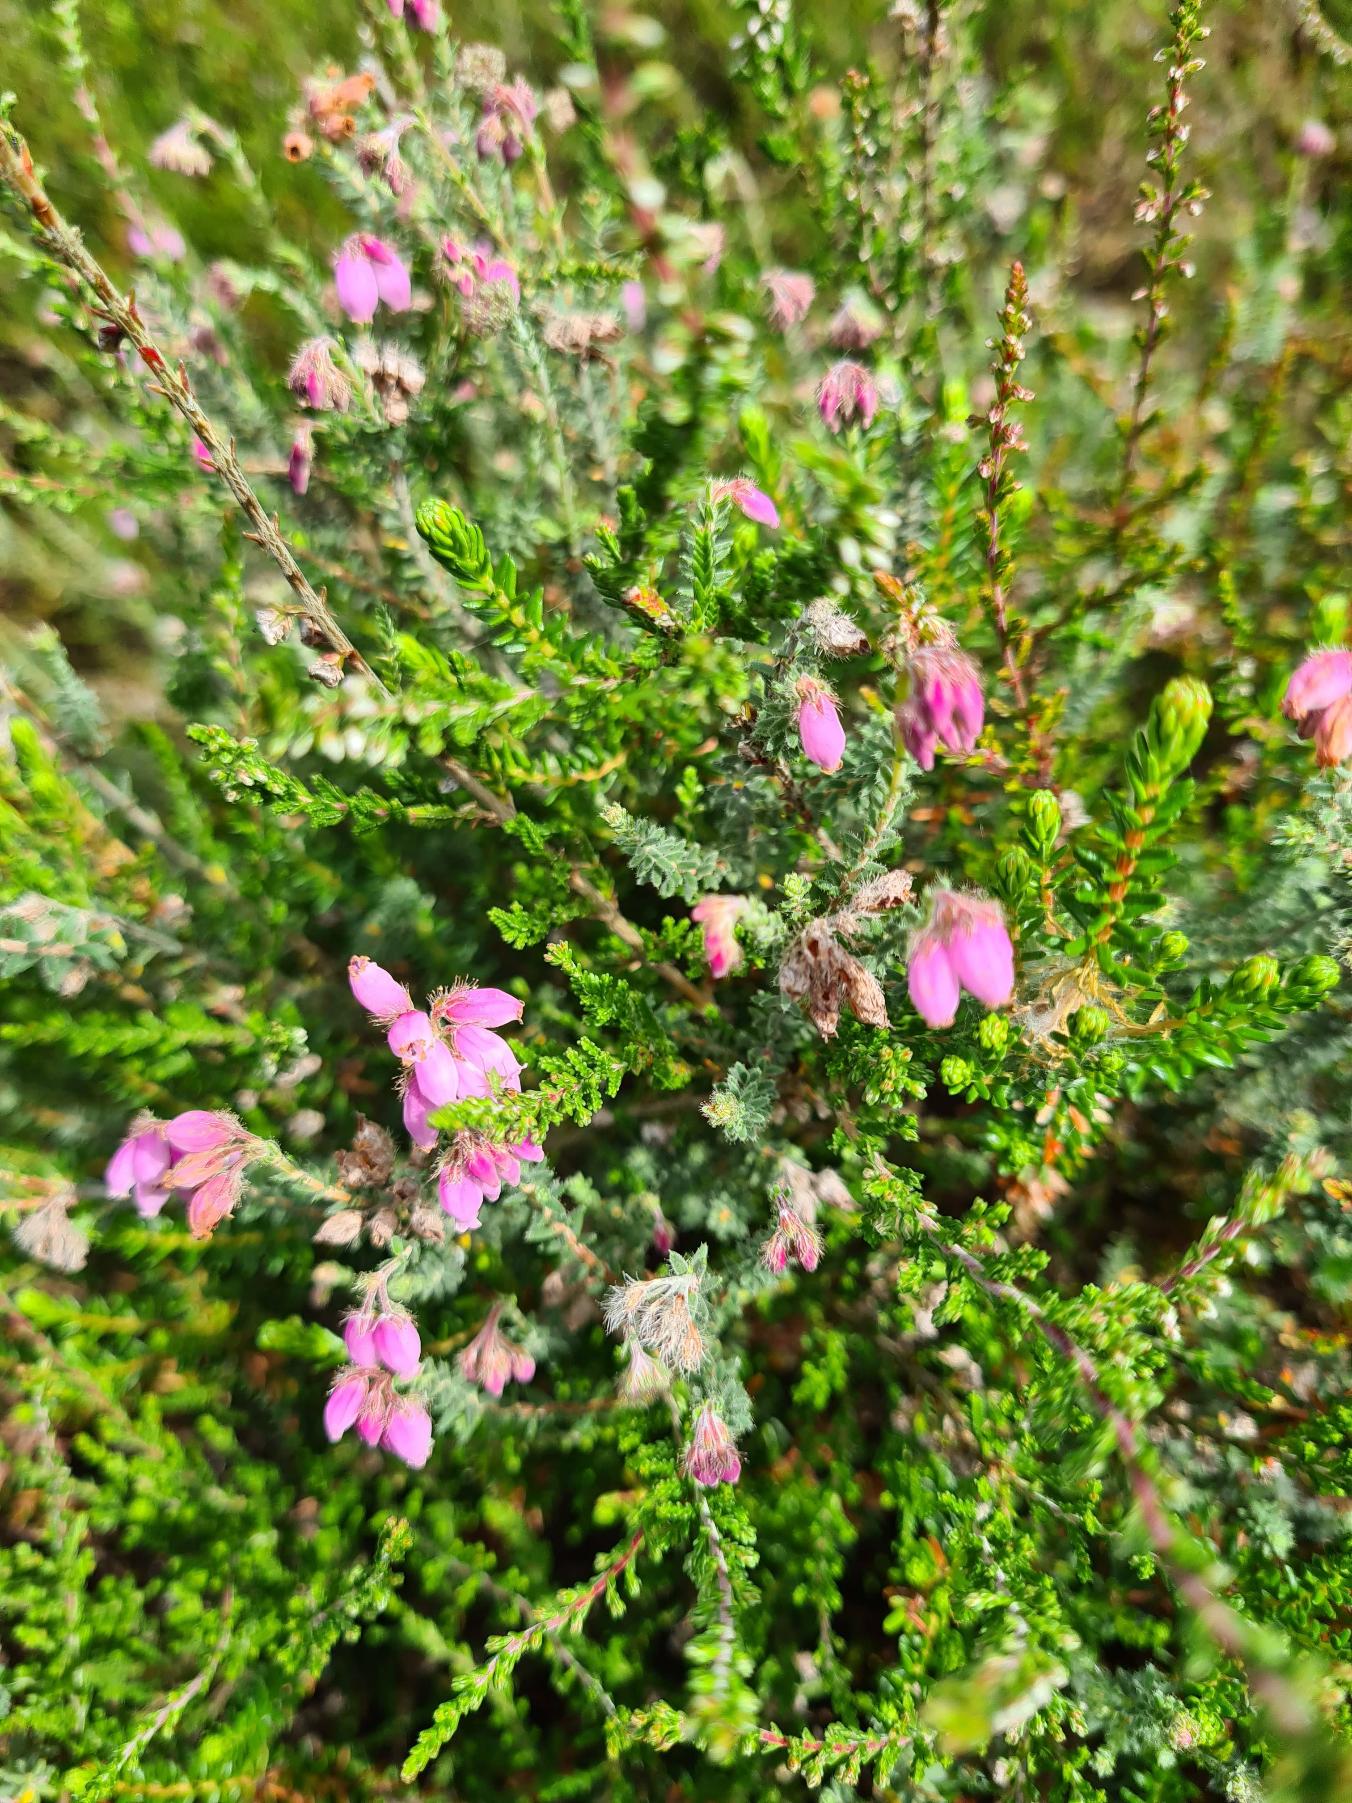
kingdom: Plantae
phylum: Tracheophyta
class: Magnoliopsida
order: Ericales
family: Ericaceae
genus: Erica
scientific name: Erica tetralix
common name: Klokkelyng
